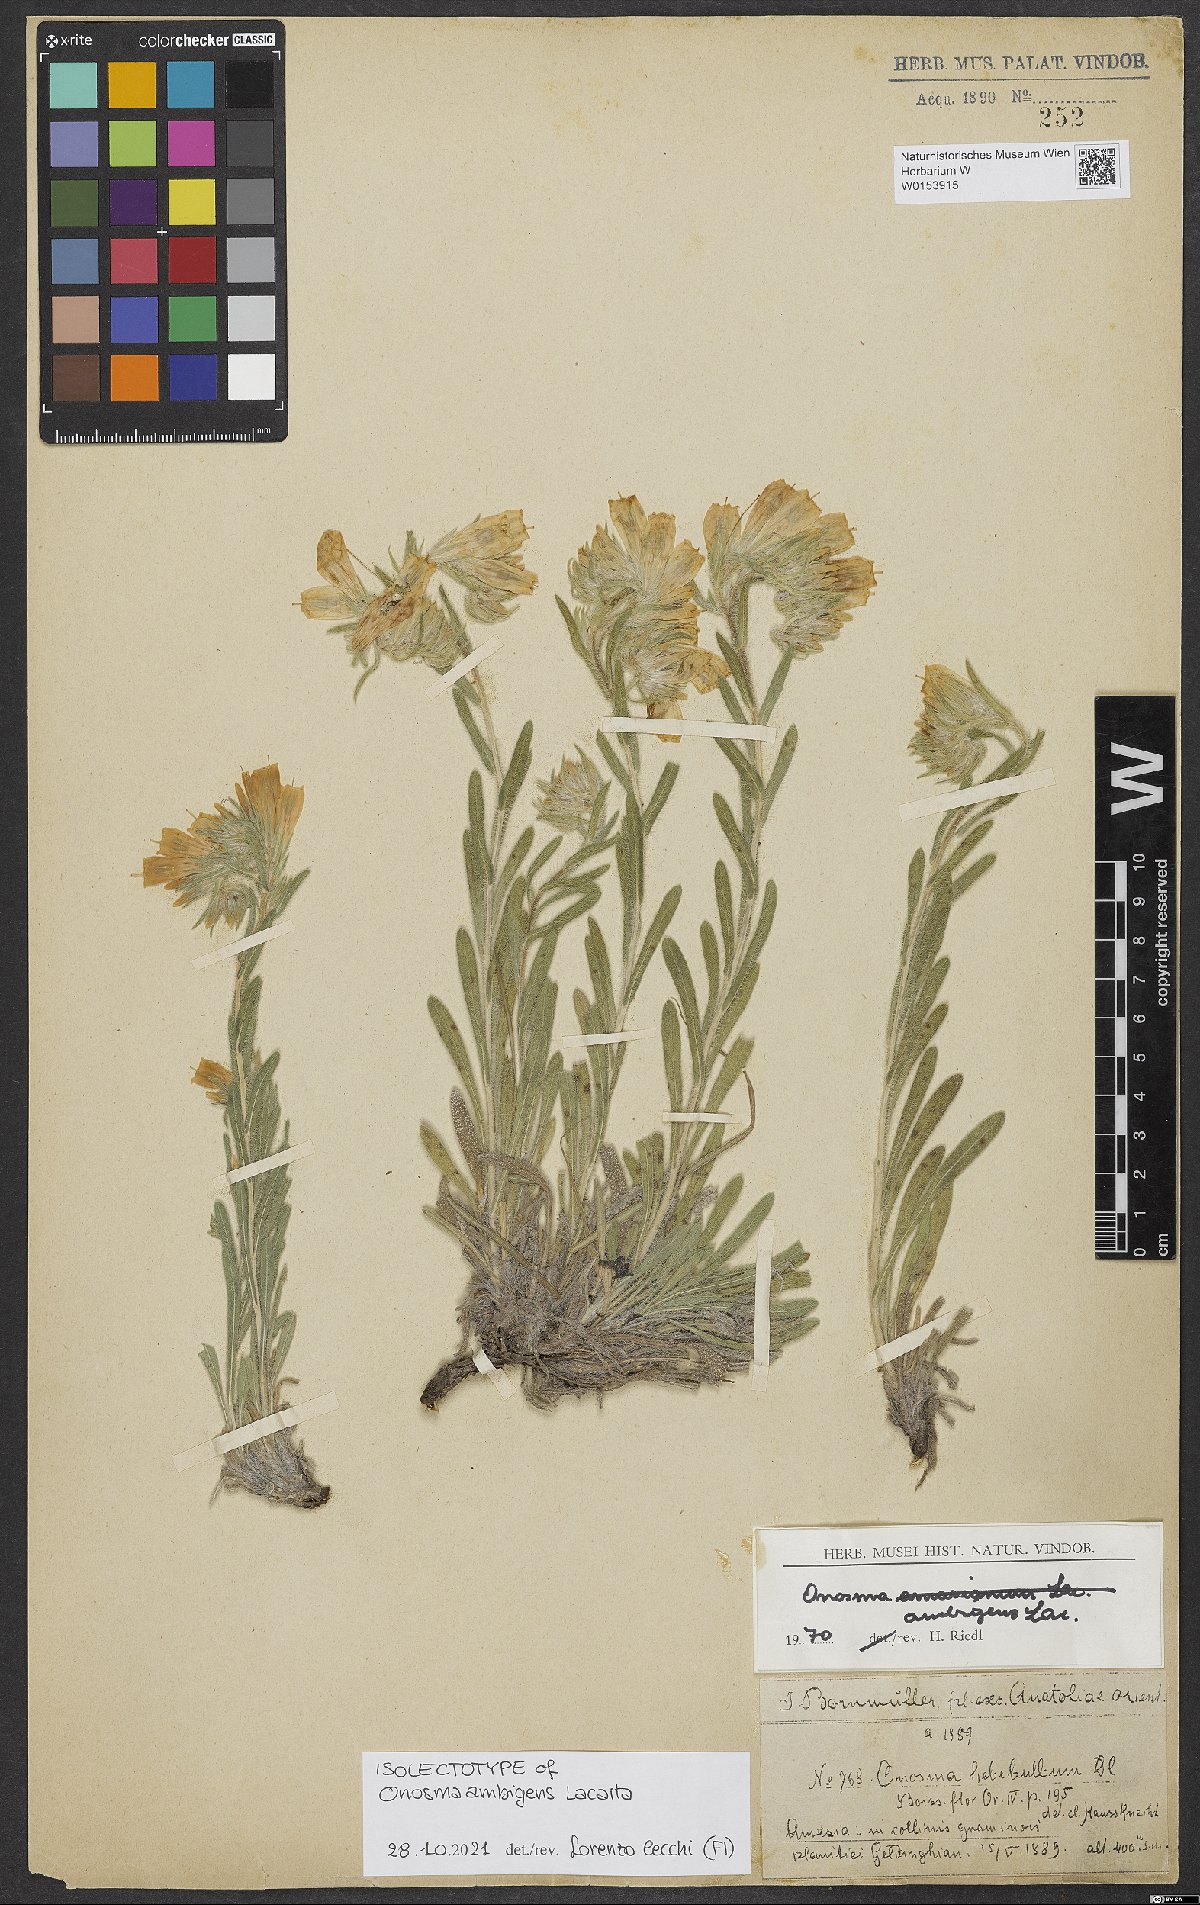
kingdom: Plantae
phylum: Tracheophyta
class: Magnoliopsida
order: Boraginales
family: Boraginaceae
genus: Onosma
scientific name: Onosma ambigens
